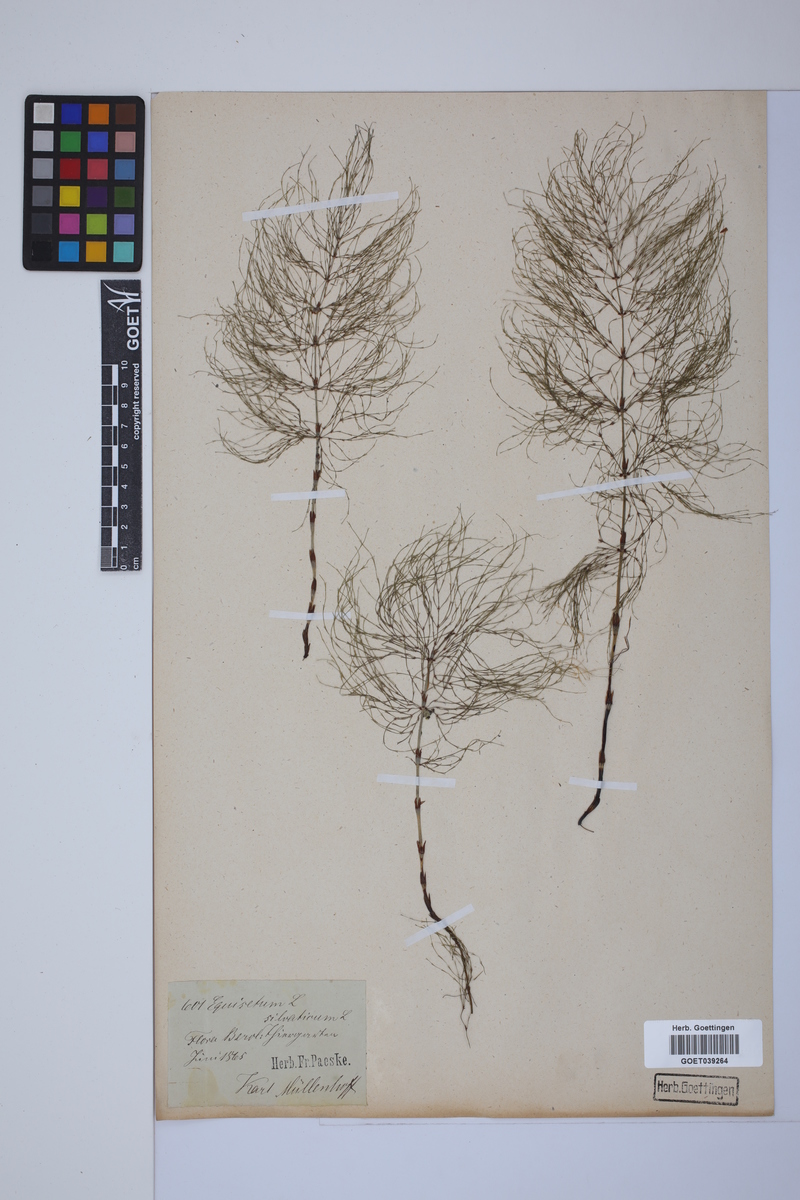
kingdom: Plantae
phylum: Tracheophyta
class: Polypodiopsida
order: Equisetales
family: Equisetaceae
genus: Equisetum
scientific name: Equisetum sylvaticum
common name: Wood horsetail
